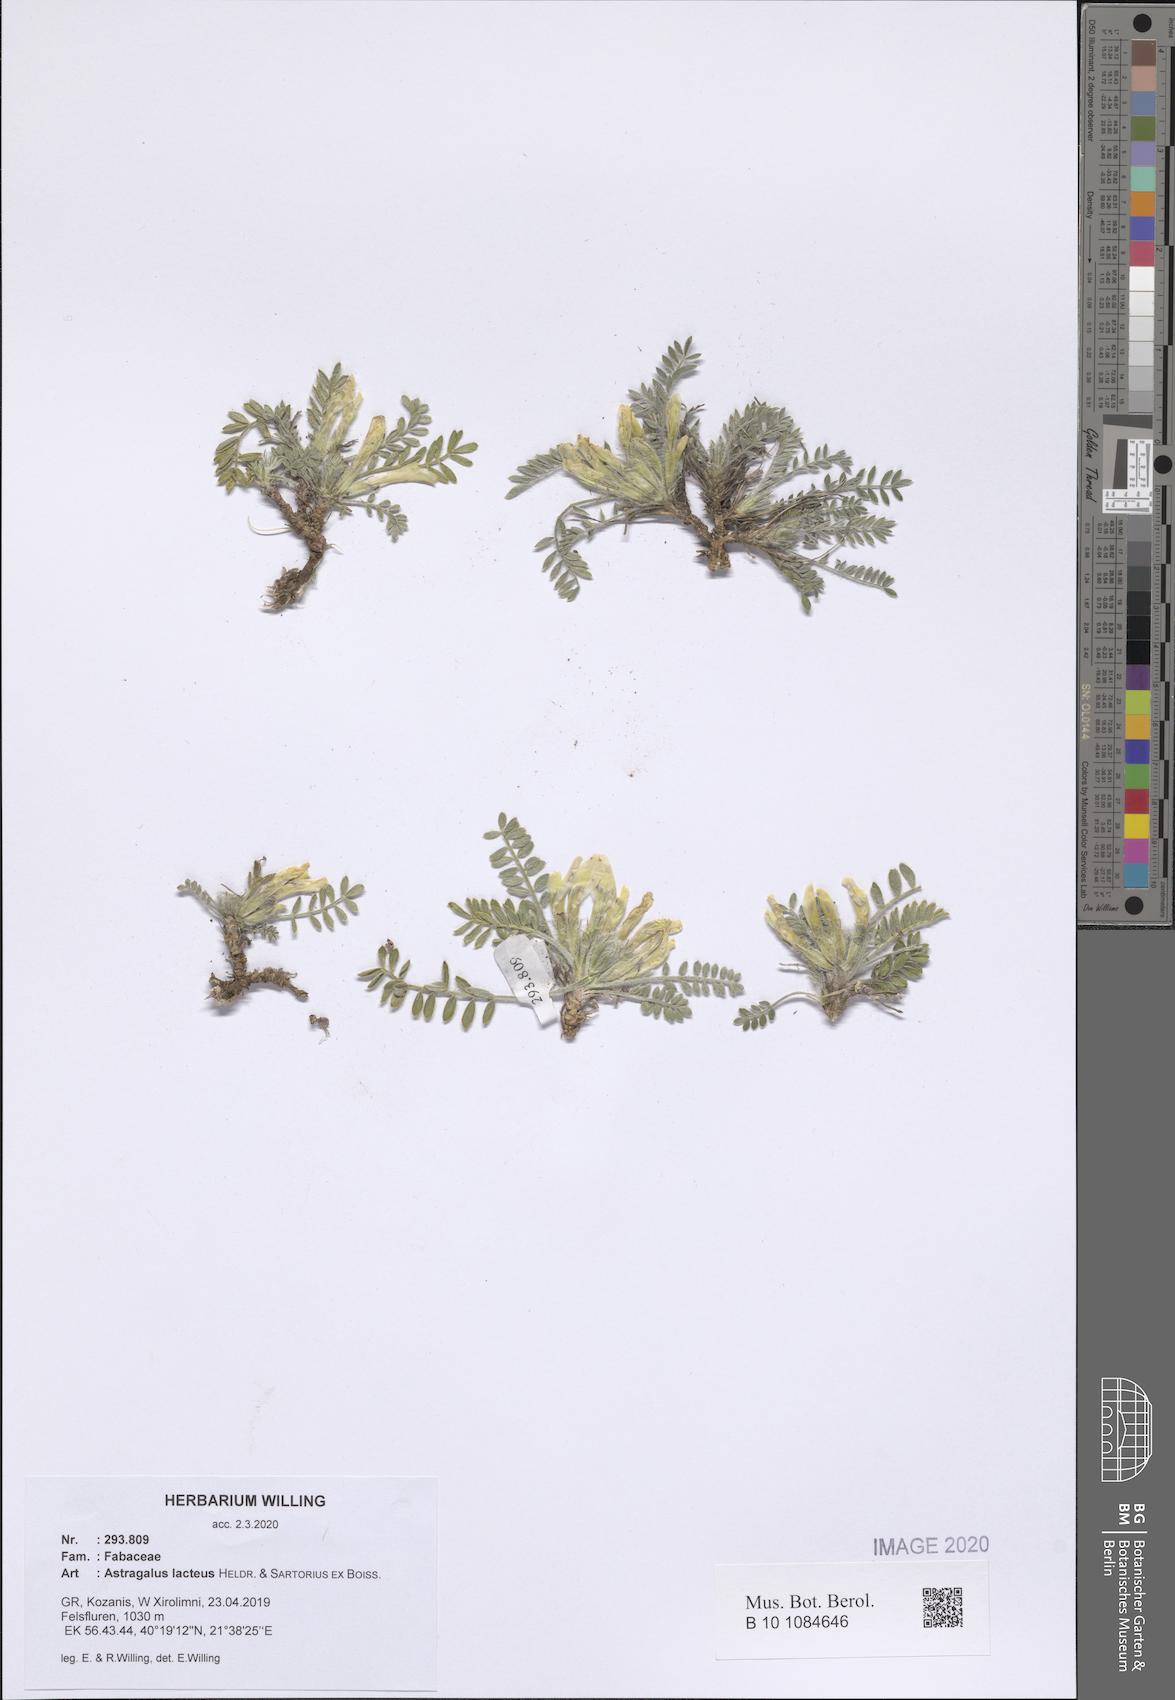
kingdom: Plantae
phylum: Tracheophyta
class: Magnoliopsida
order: Fabales
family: Fabaceae
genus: Astragalus
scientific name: Astragalus lacteus
